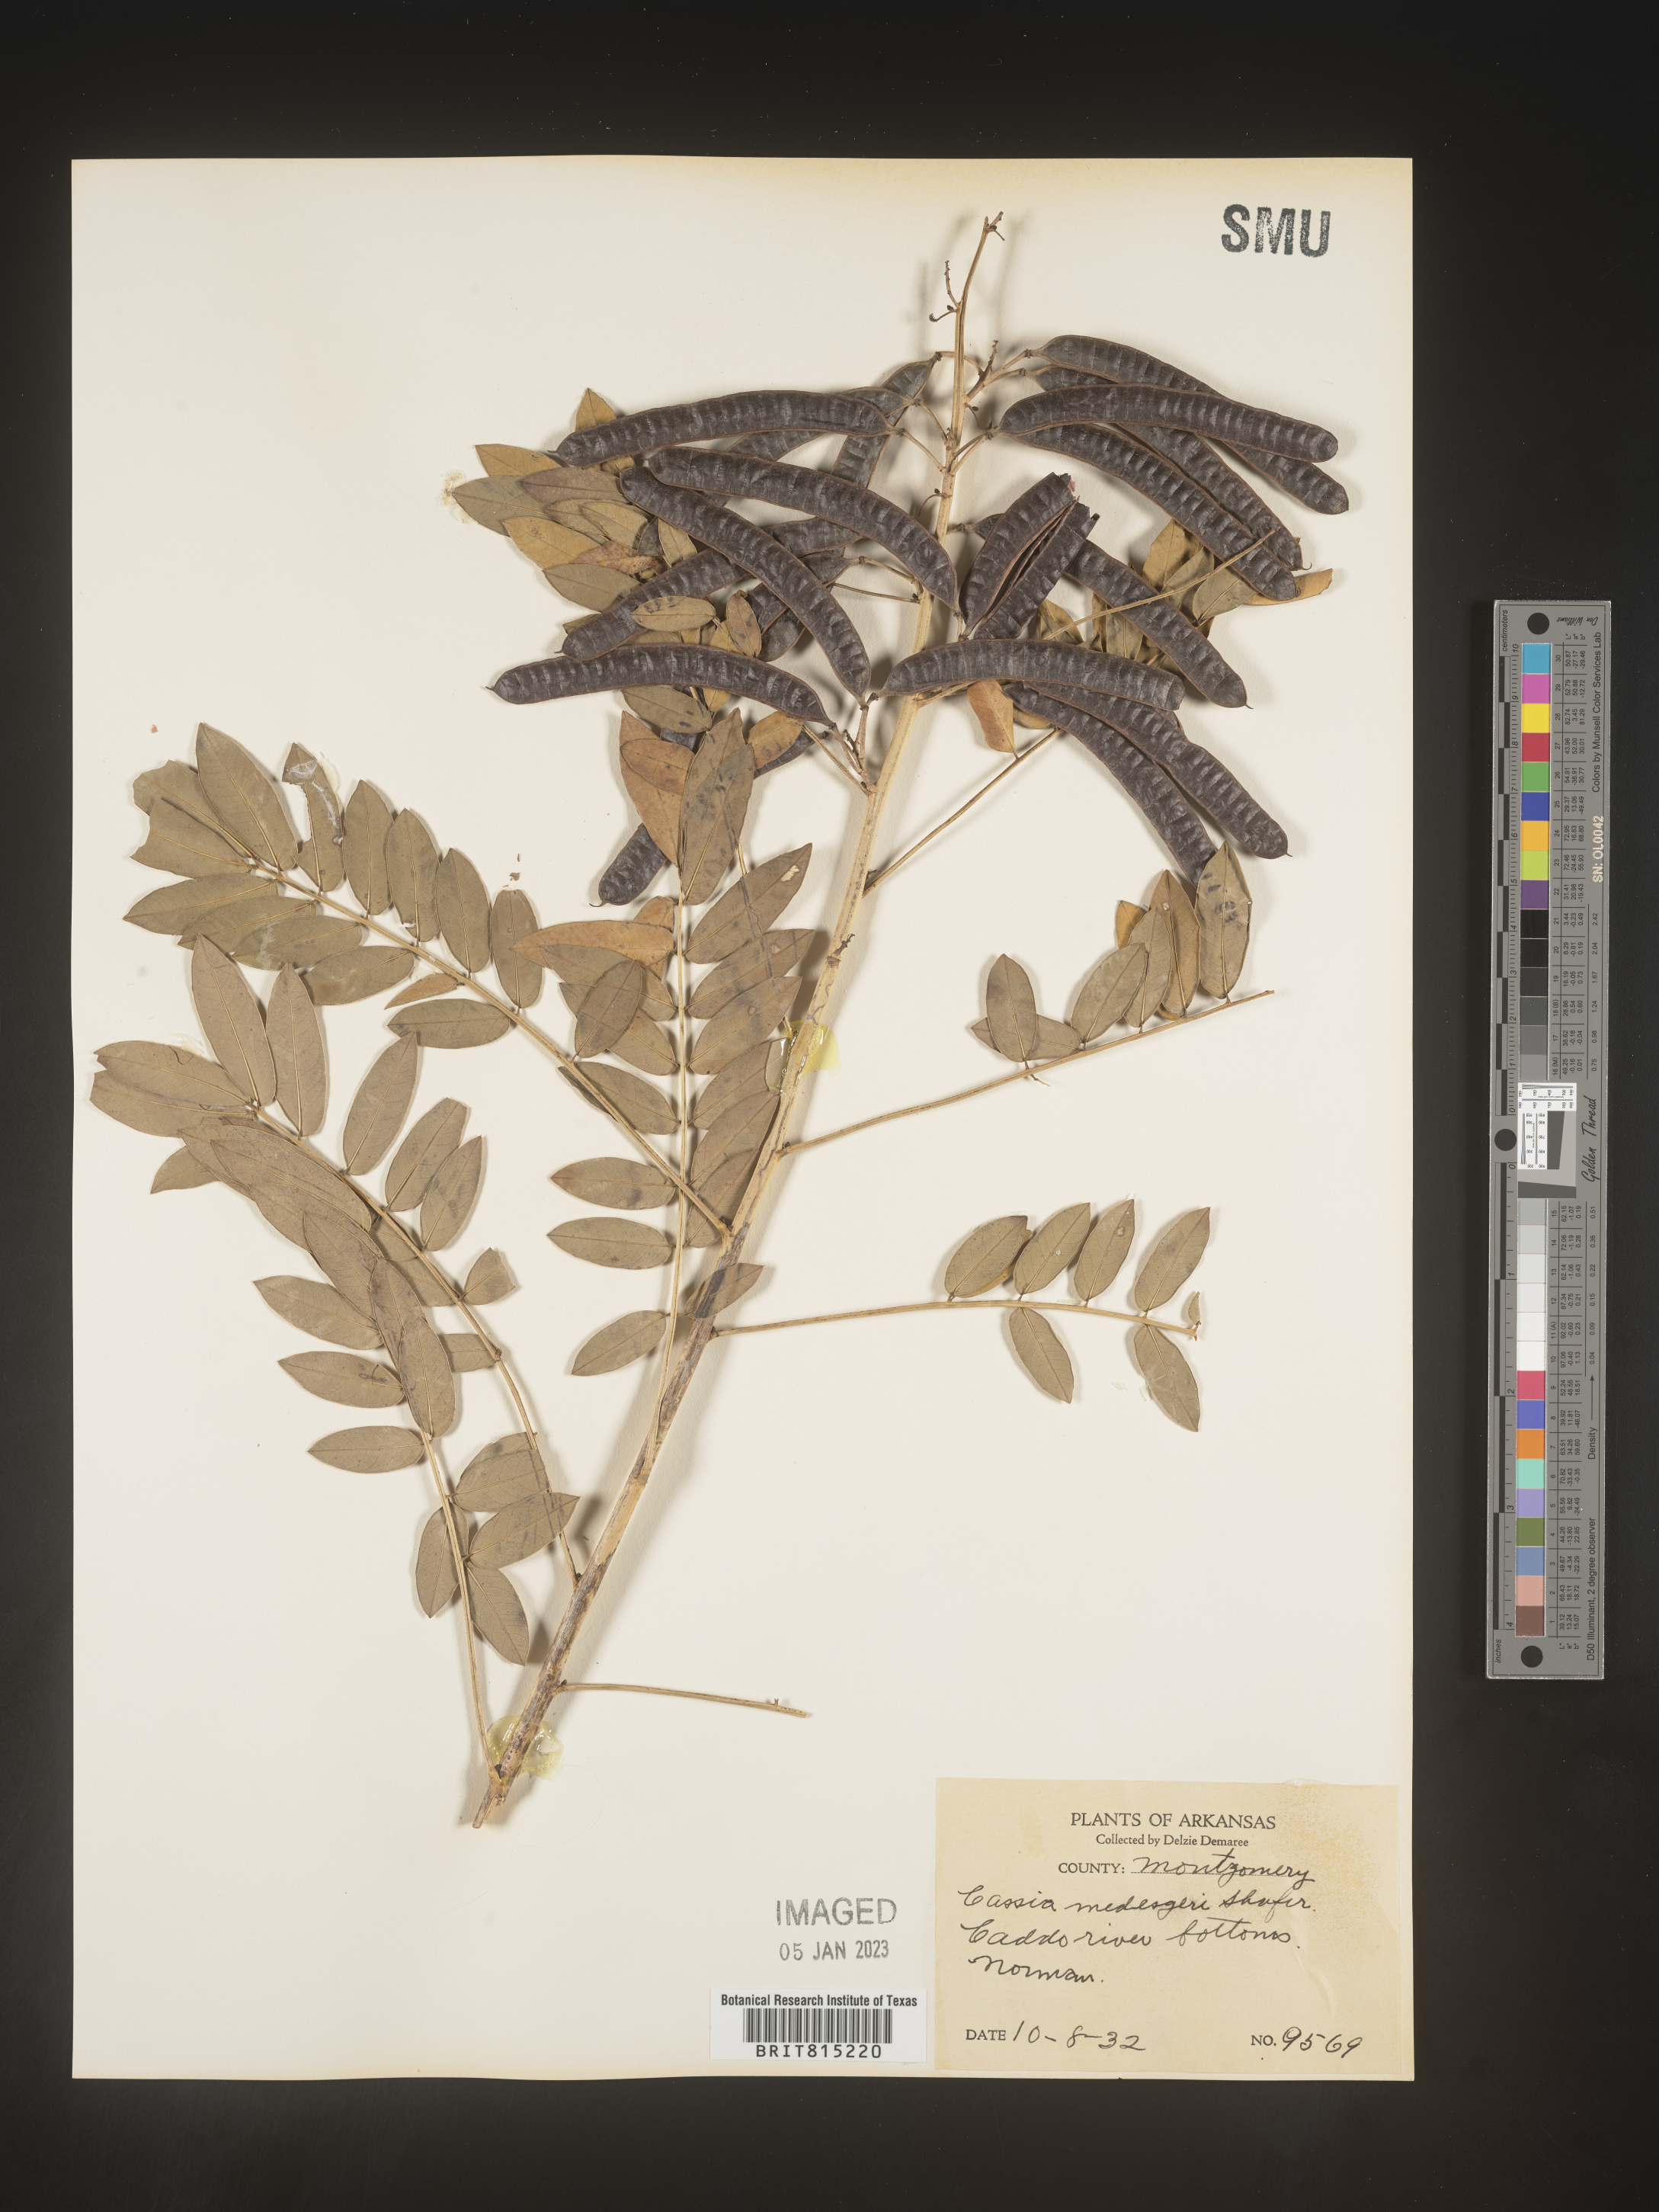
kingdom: Plantae
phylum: Tracheophyta
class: Magnoliopsida
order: Fabales
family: Fabaceae
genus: Senna
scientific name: Senna marilandica
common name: American senna
